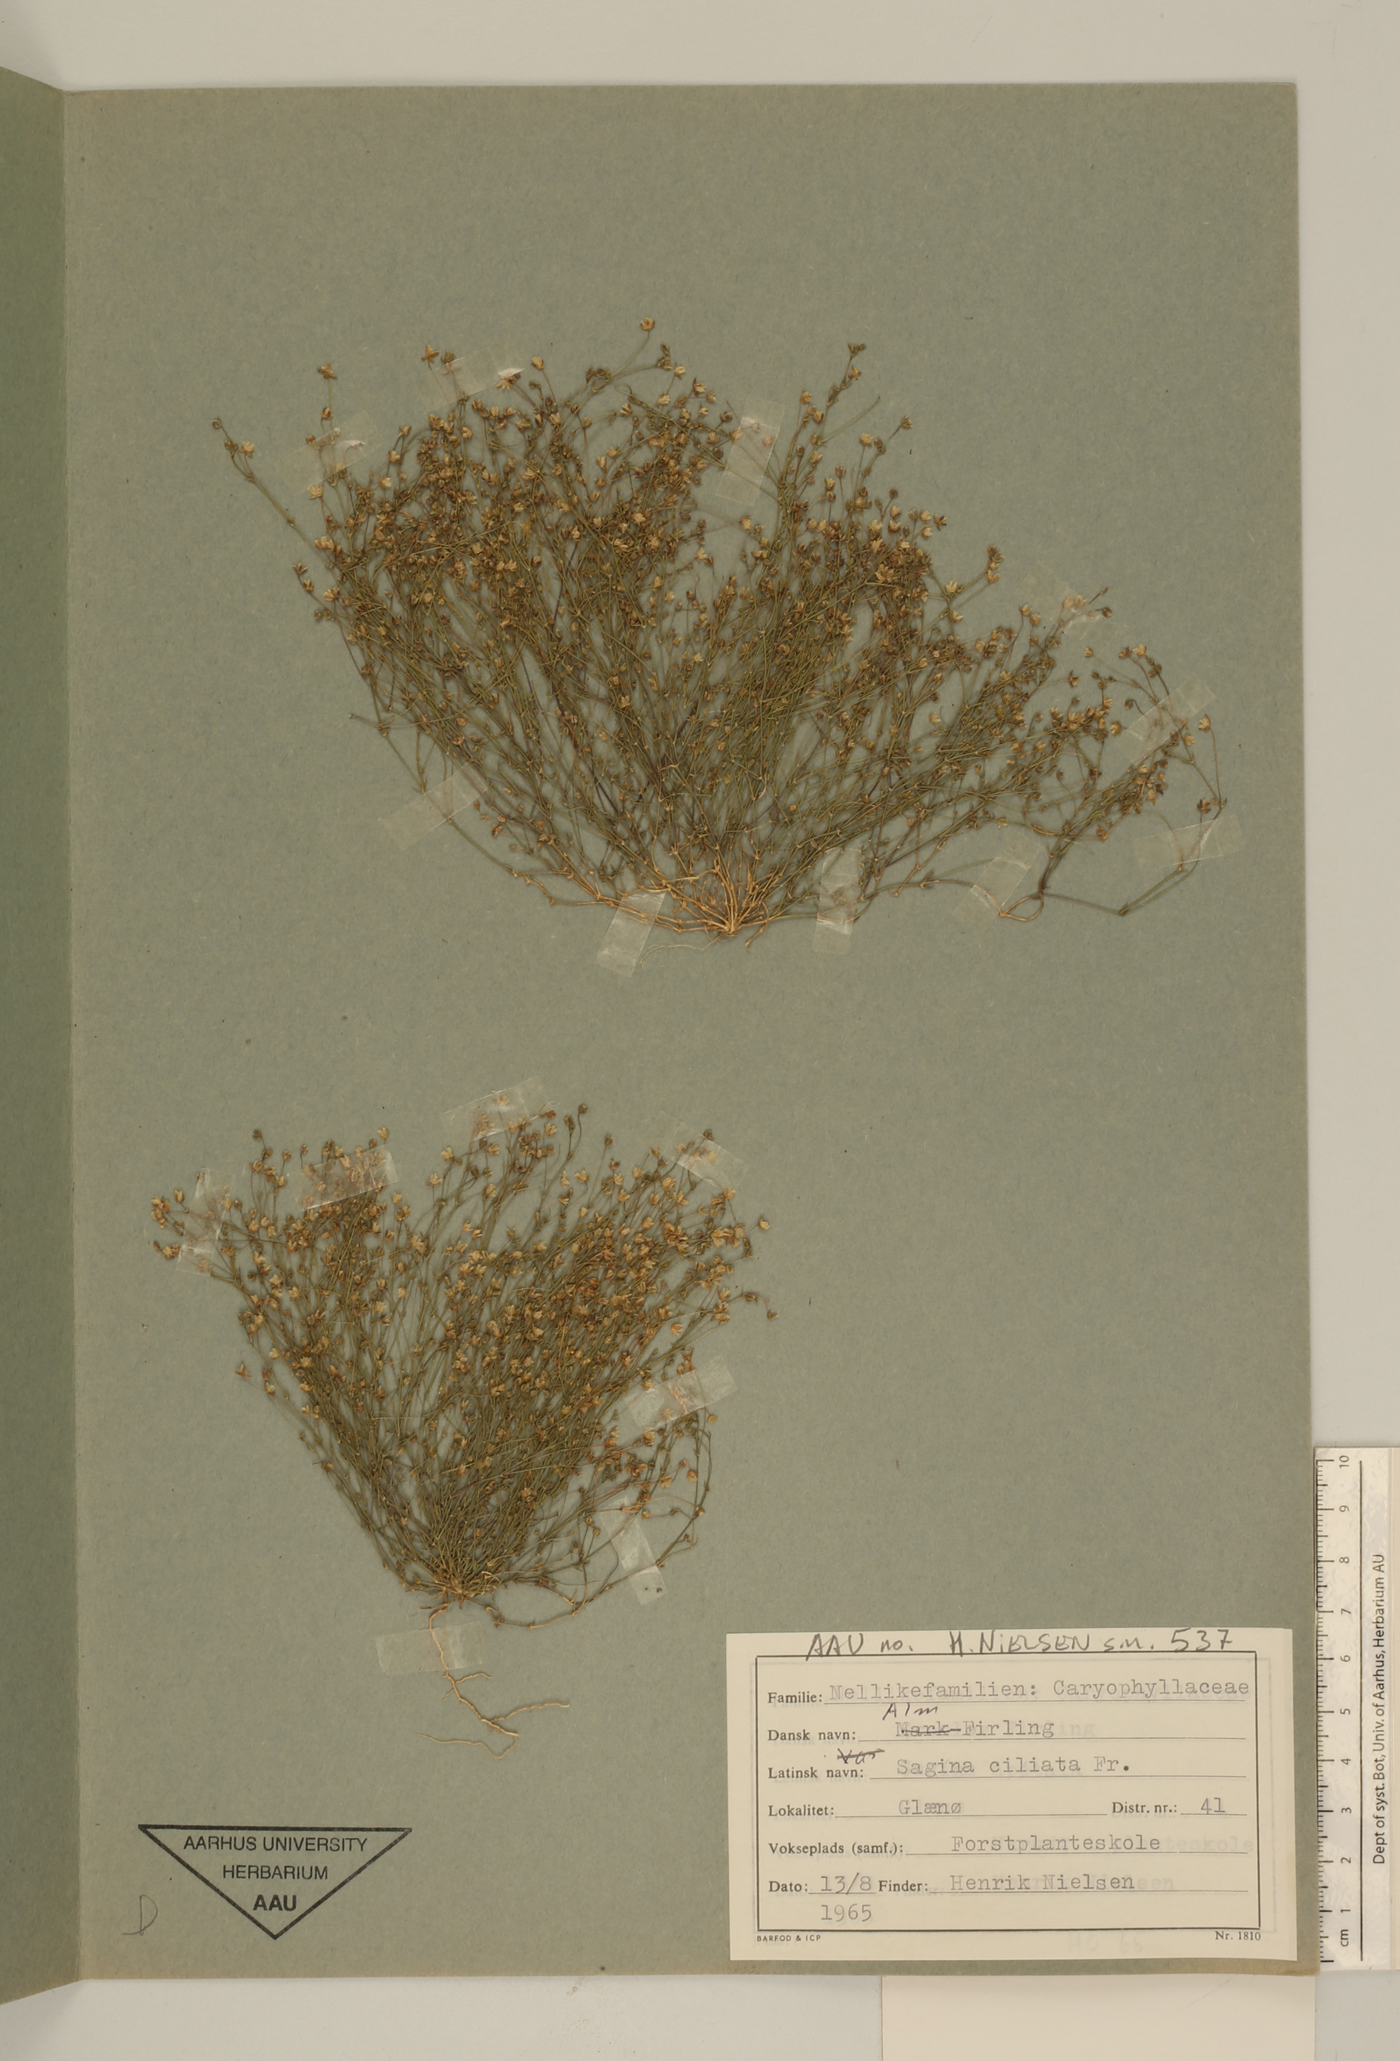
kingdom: Plantae
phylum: Tracheophyta
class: Magnoliopsida
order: Caryophyllales
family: Caryophyllaceae
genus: Sagina
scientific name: Sagina apetala
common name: Annual pearlwort
